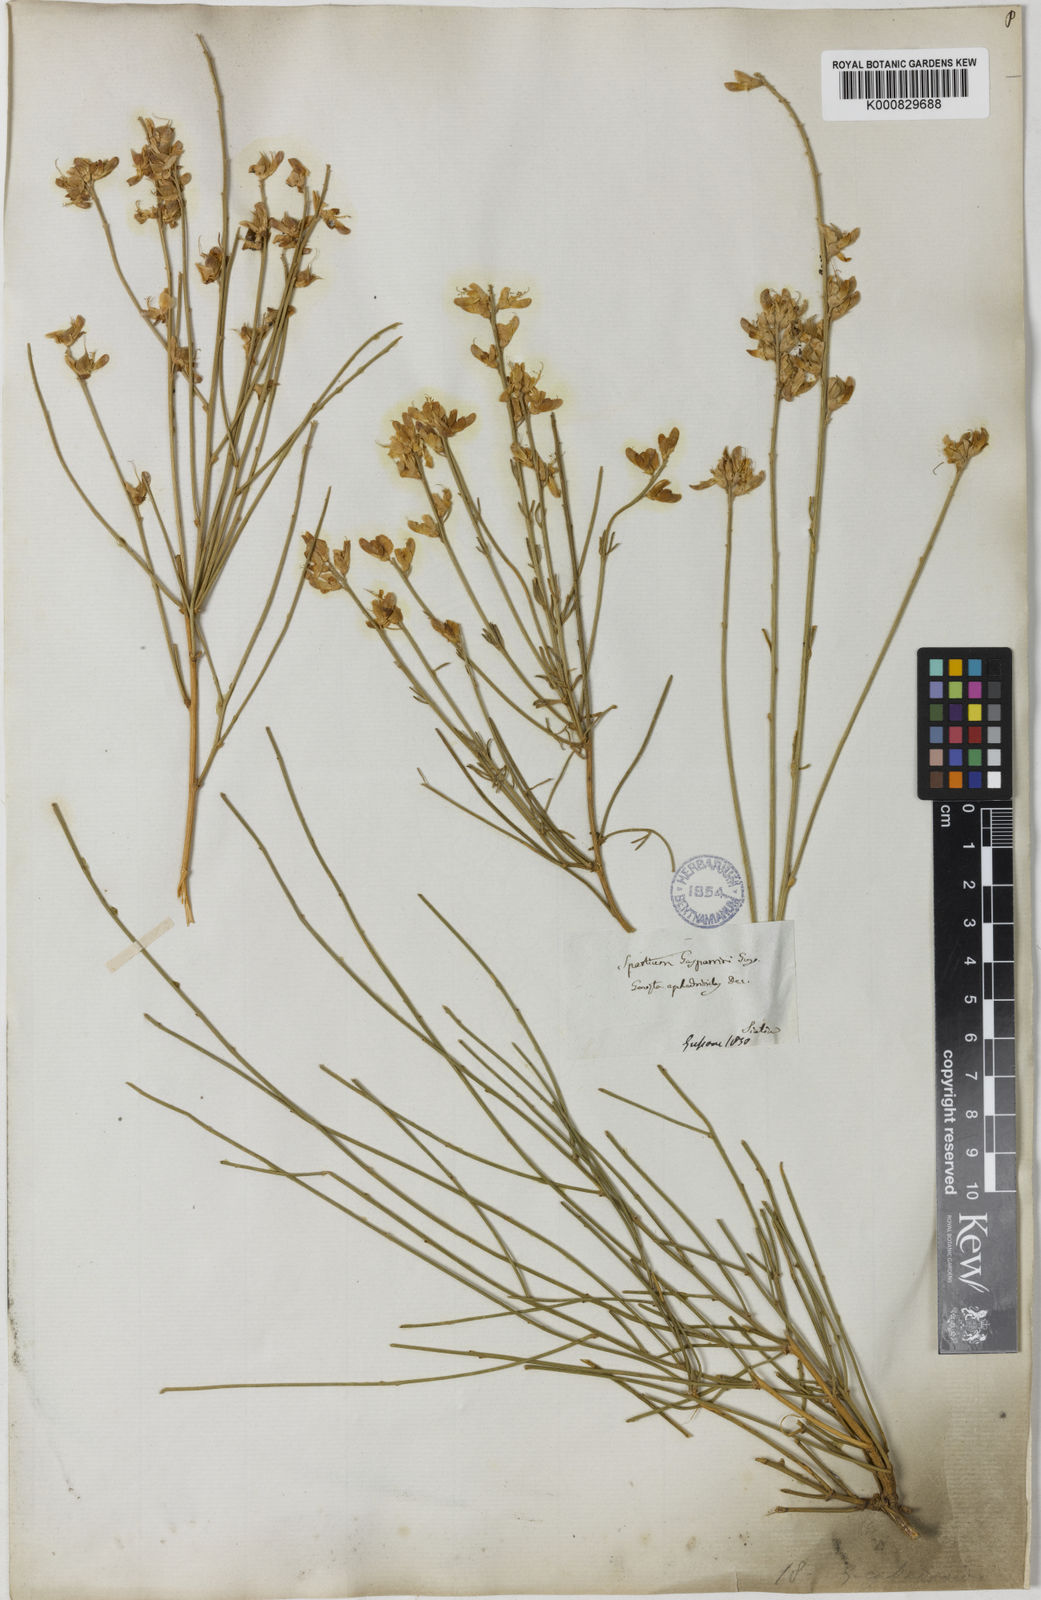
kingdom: Plantae
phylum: Tracheophyta
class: Magnoliopsida
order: Fabales
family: Fabaceae
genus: Genista
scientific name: Genista ephedroides
